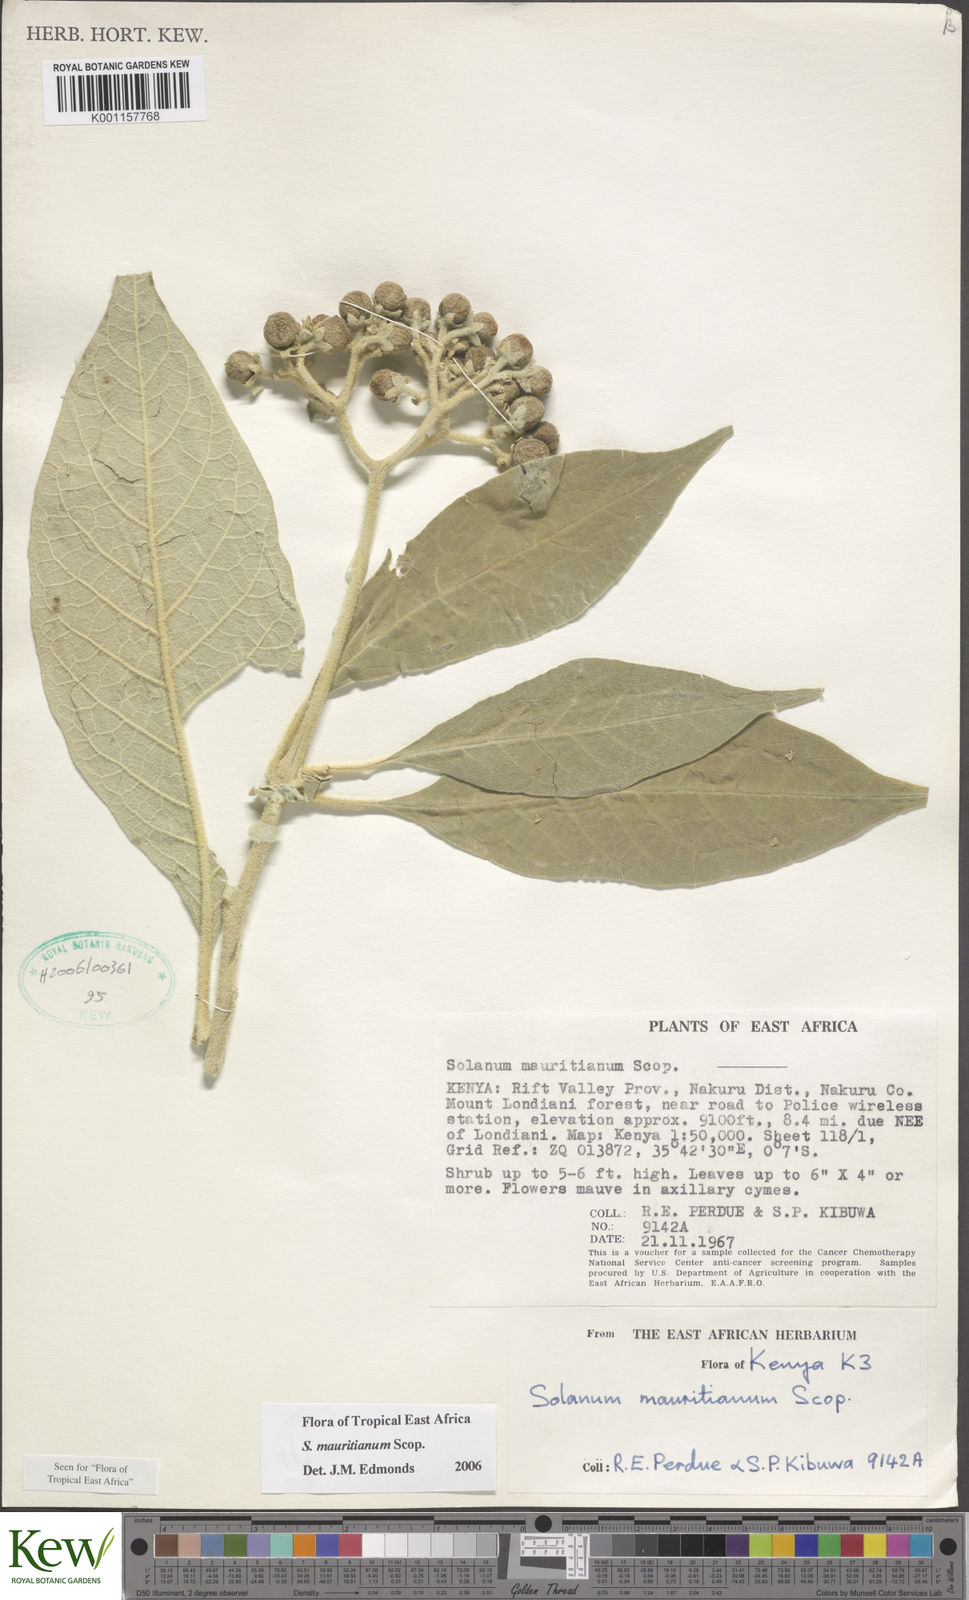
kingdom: Plantae
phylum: Tracheophyta
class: Magnoliopsida
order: Solanales
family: Solanaceae
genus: Solanum
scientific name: Solanum mauritianum
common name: Earleaf nightshade
